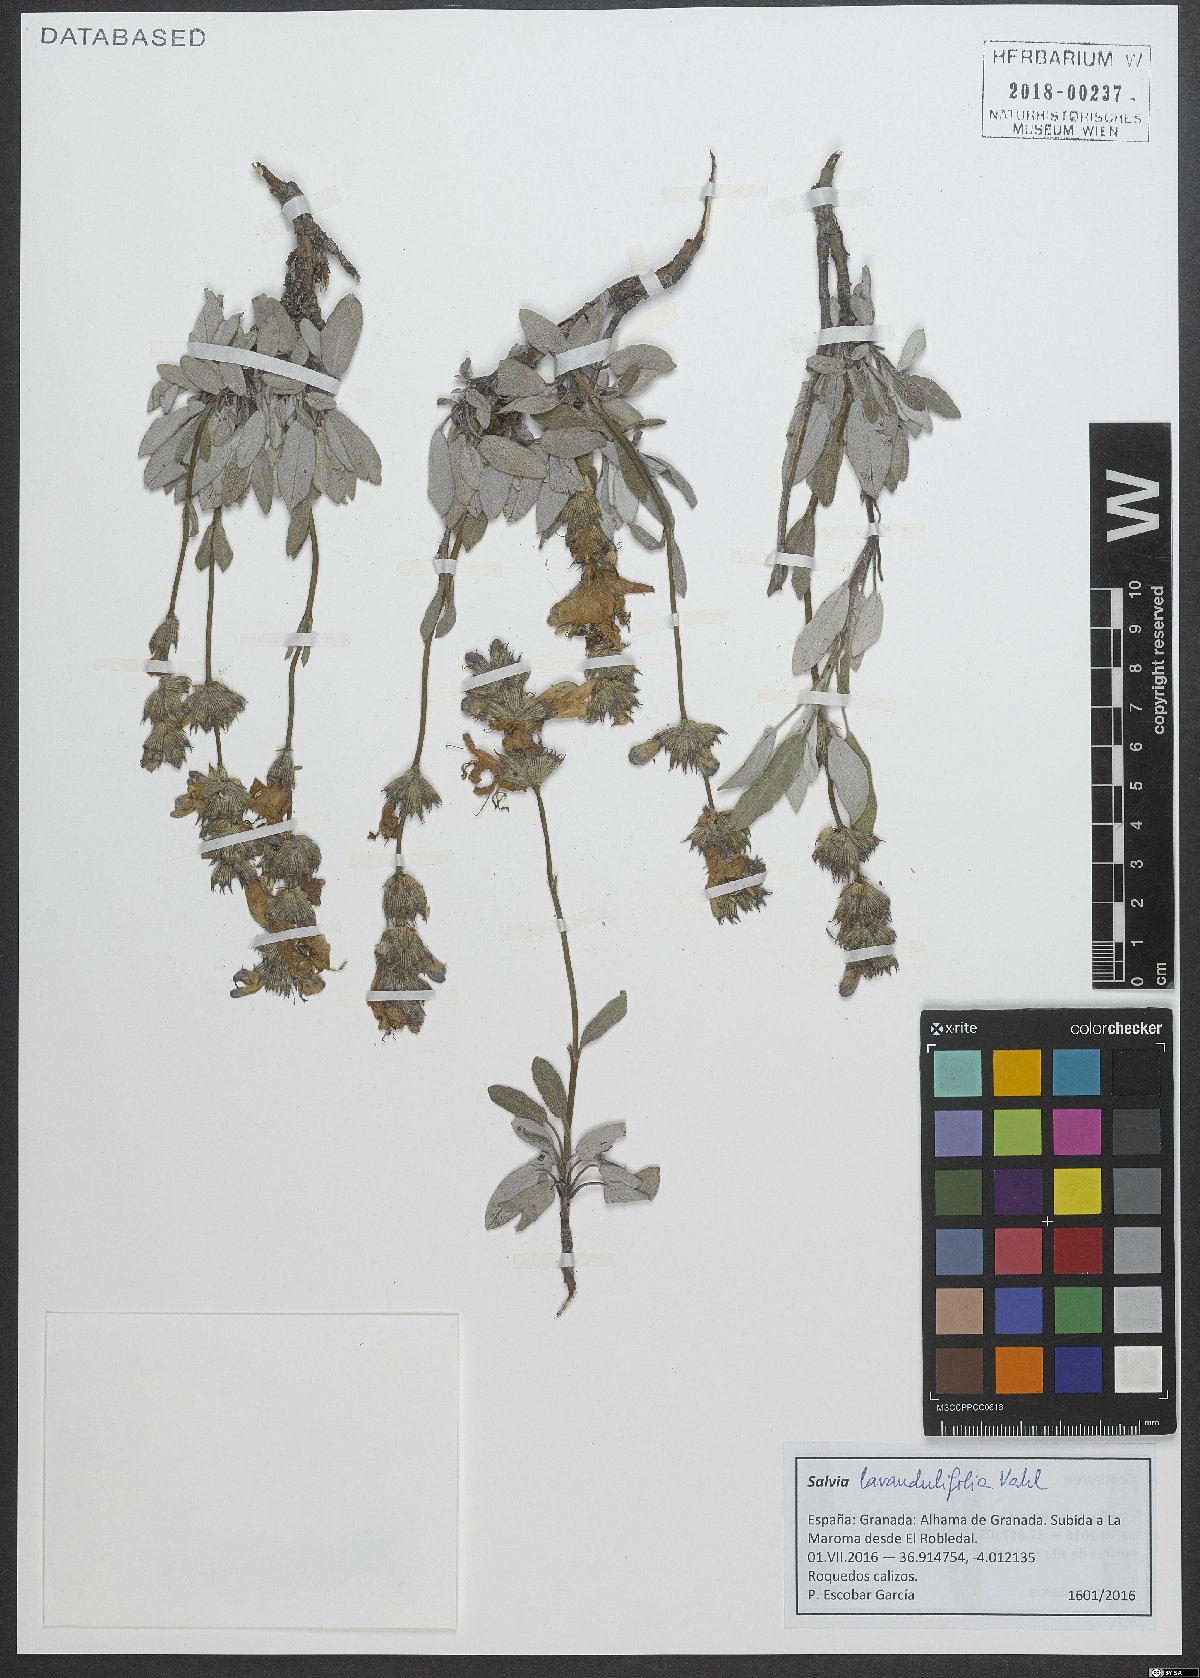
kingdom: Plantae
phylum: Tracheophyta
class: Magnoliopsida
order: Lamiales
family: Lamiaceae
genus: Salvia
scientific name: Salvia officinalis
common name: Sage
